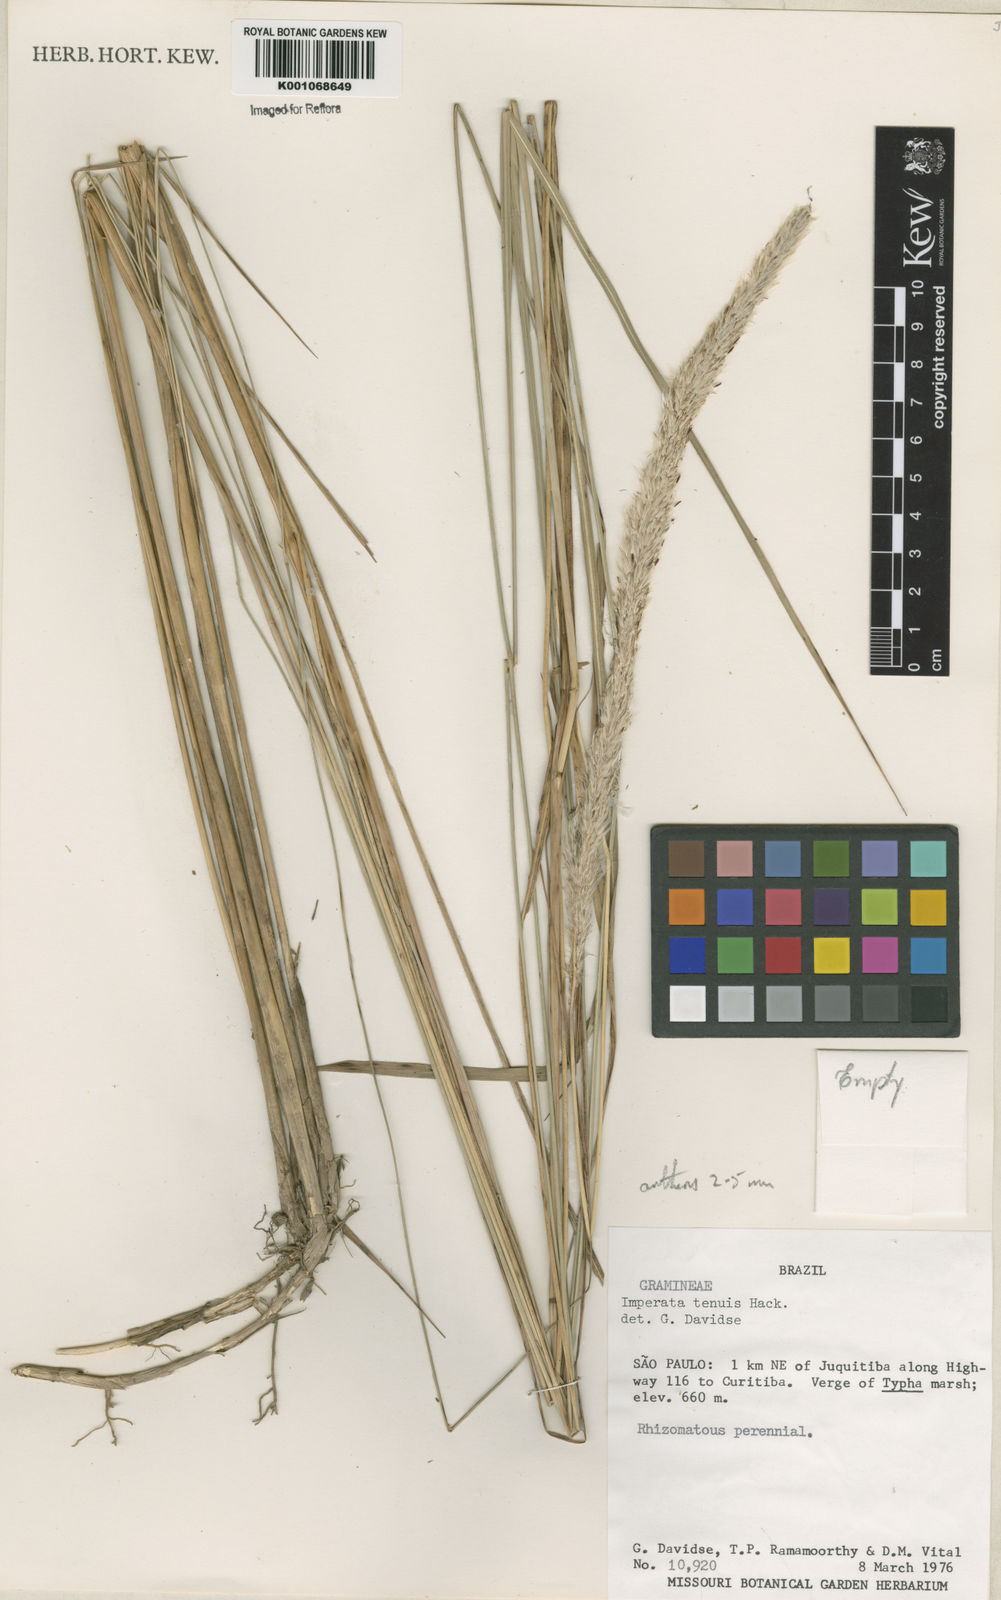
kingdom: Plantae
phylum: Tracheophyta
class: Liliopsida
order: Poales
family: Poaceae
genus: Imperata
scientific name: Imperata tenuis
